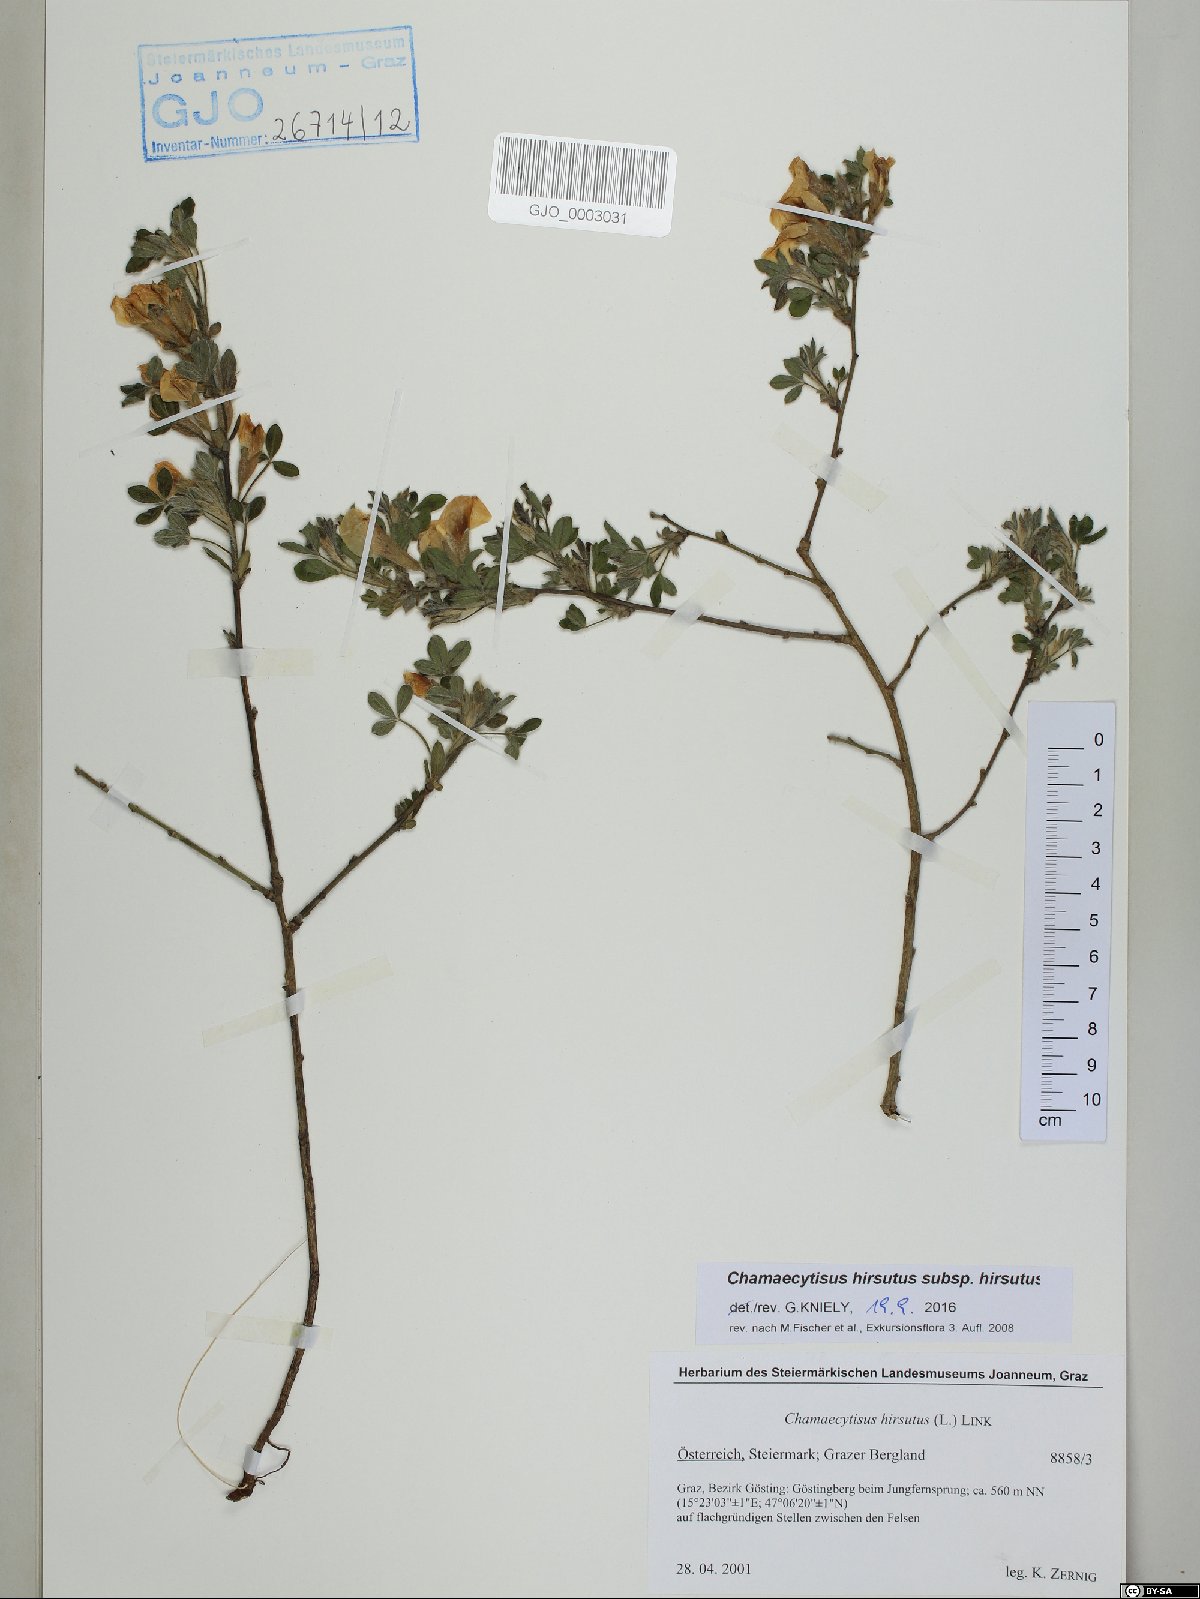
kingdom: Plantae
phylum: Tracheophyta
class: Magnoliopsida
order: Fabales
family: Fabaceae
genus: Chamaecytisus
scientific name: Chamaecytisus hirsutus
